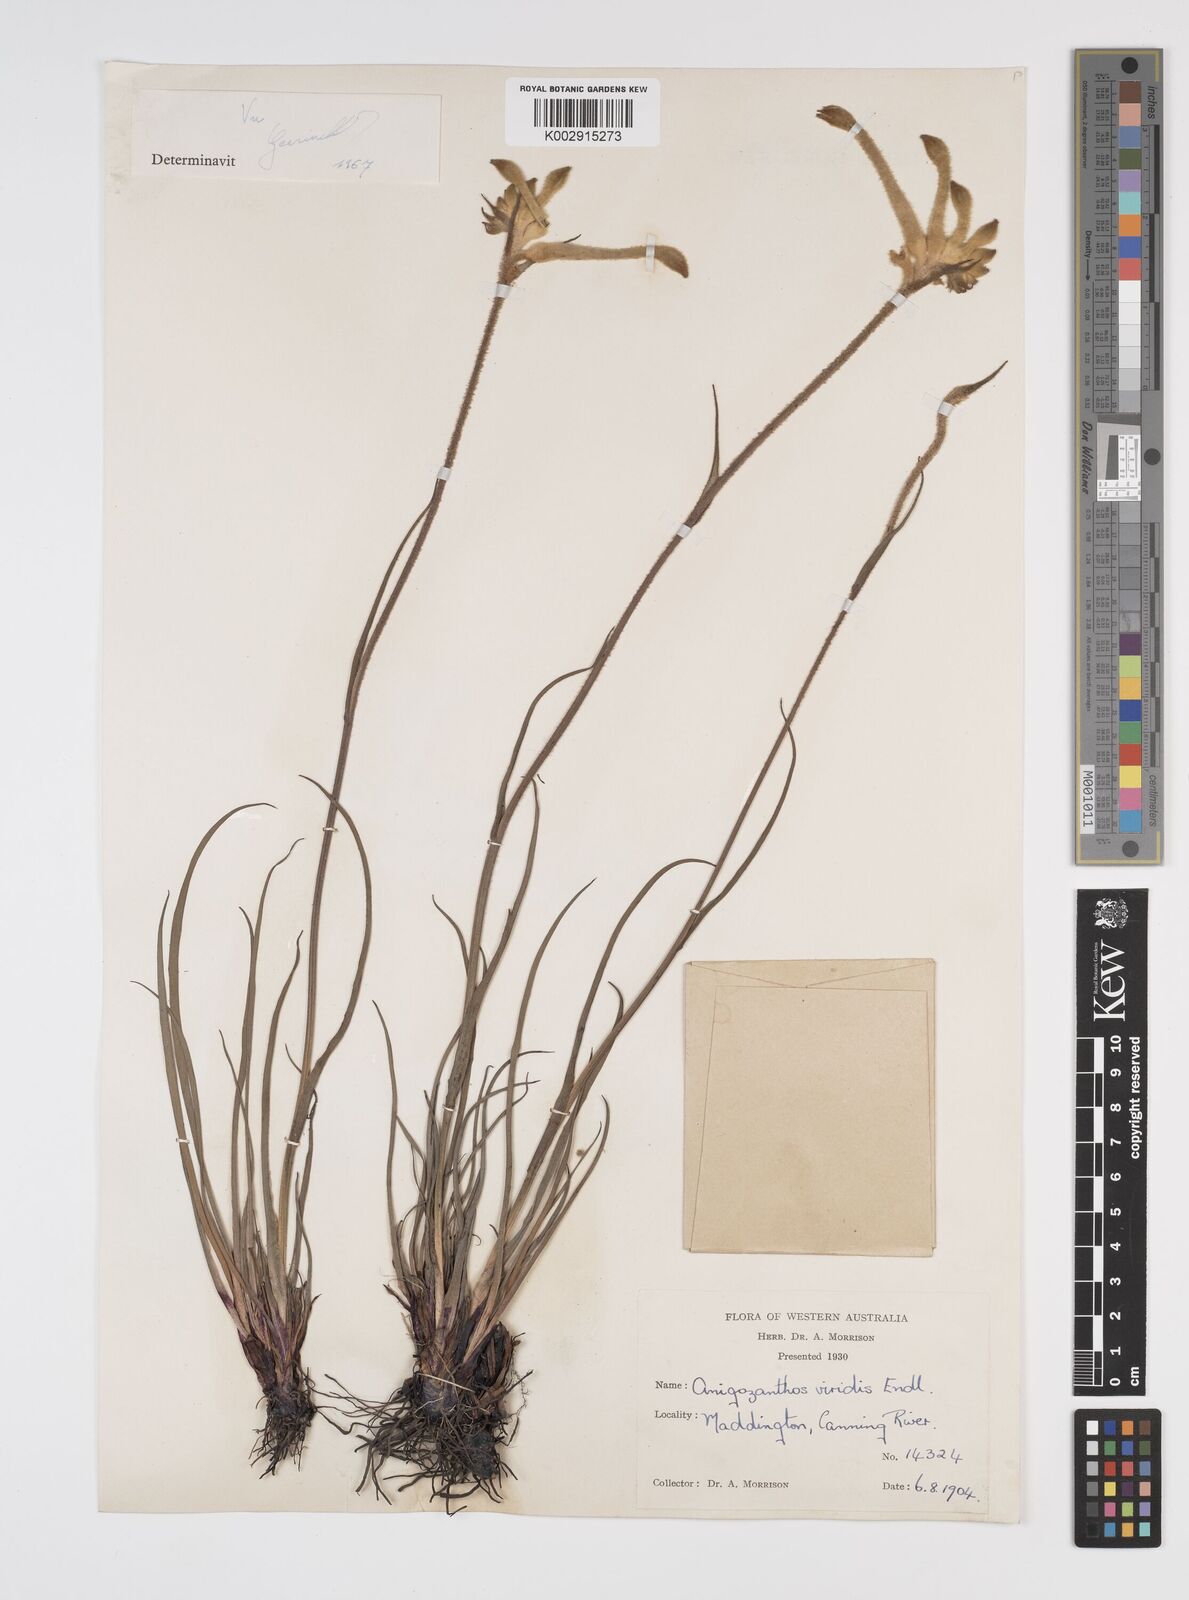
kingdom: Plantae
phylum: Tracheophyta
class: Liliopsida
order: Commelinales
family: Haemodoraceae
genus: Anigozanthos
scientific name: Anigozanthos viridis
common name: Green kangaroo-paw
